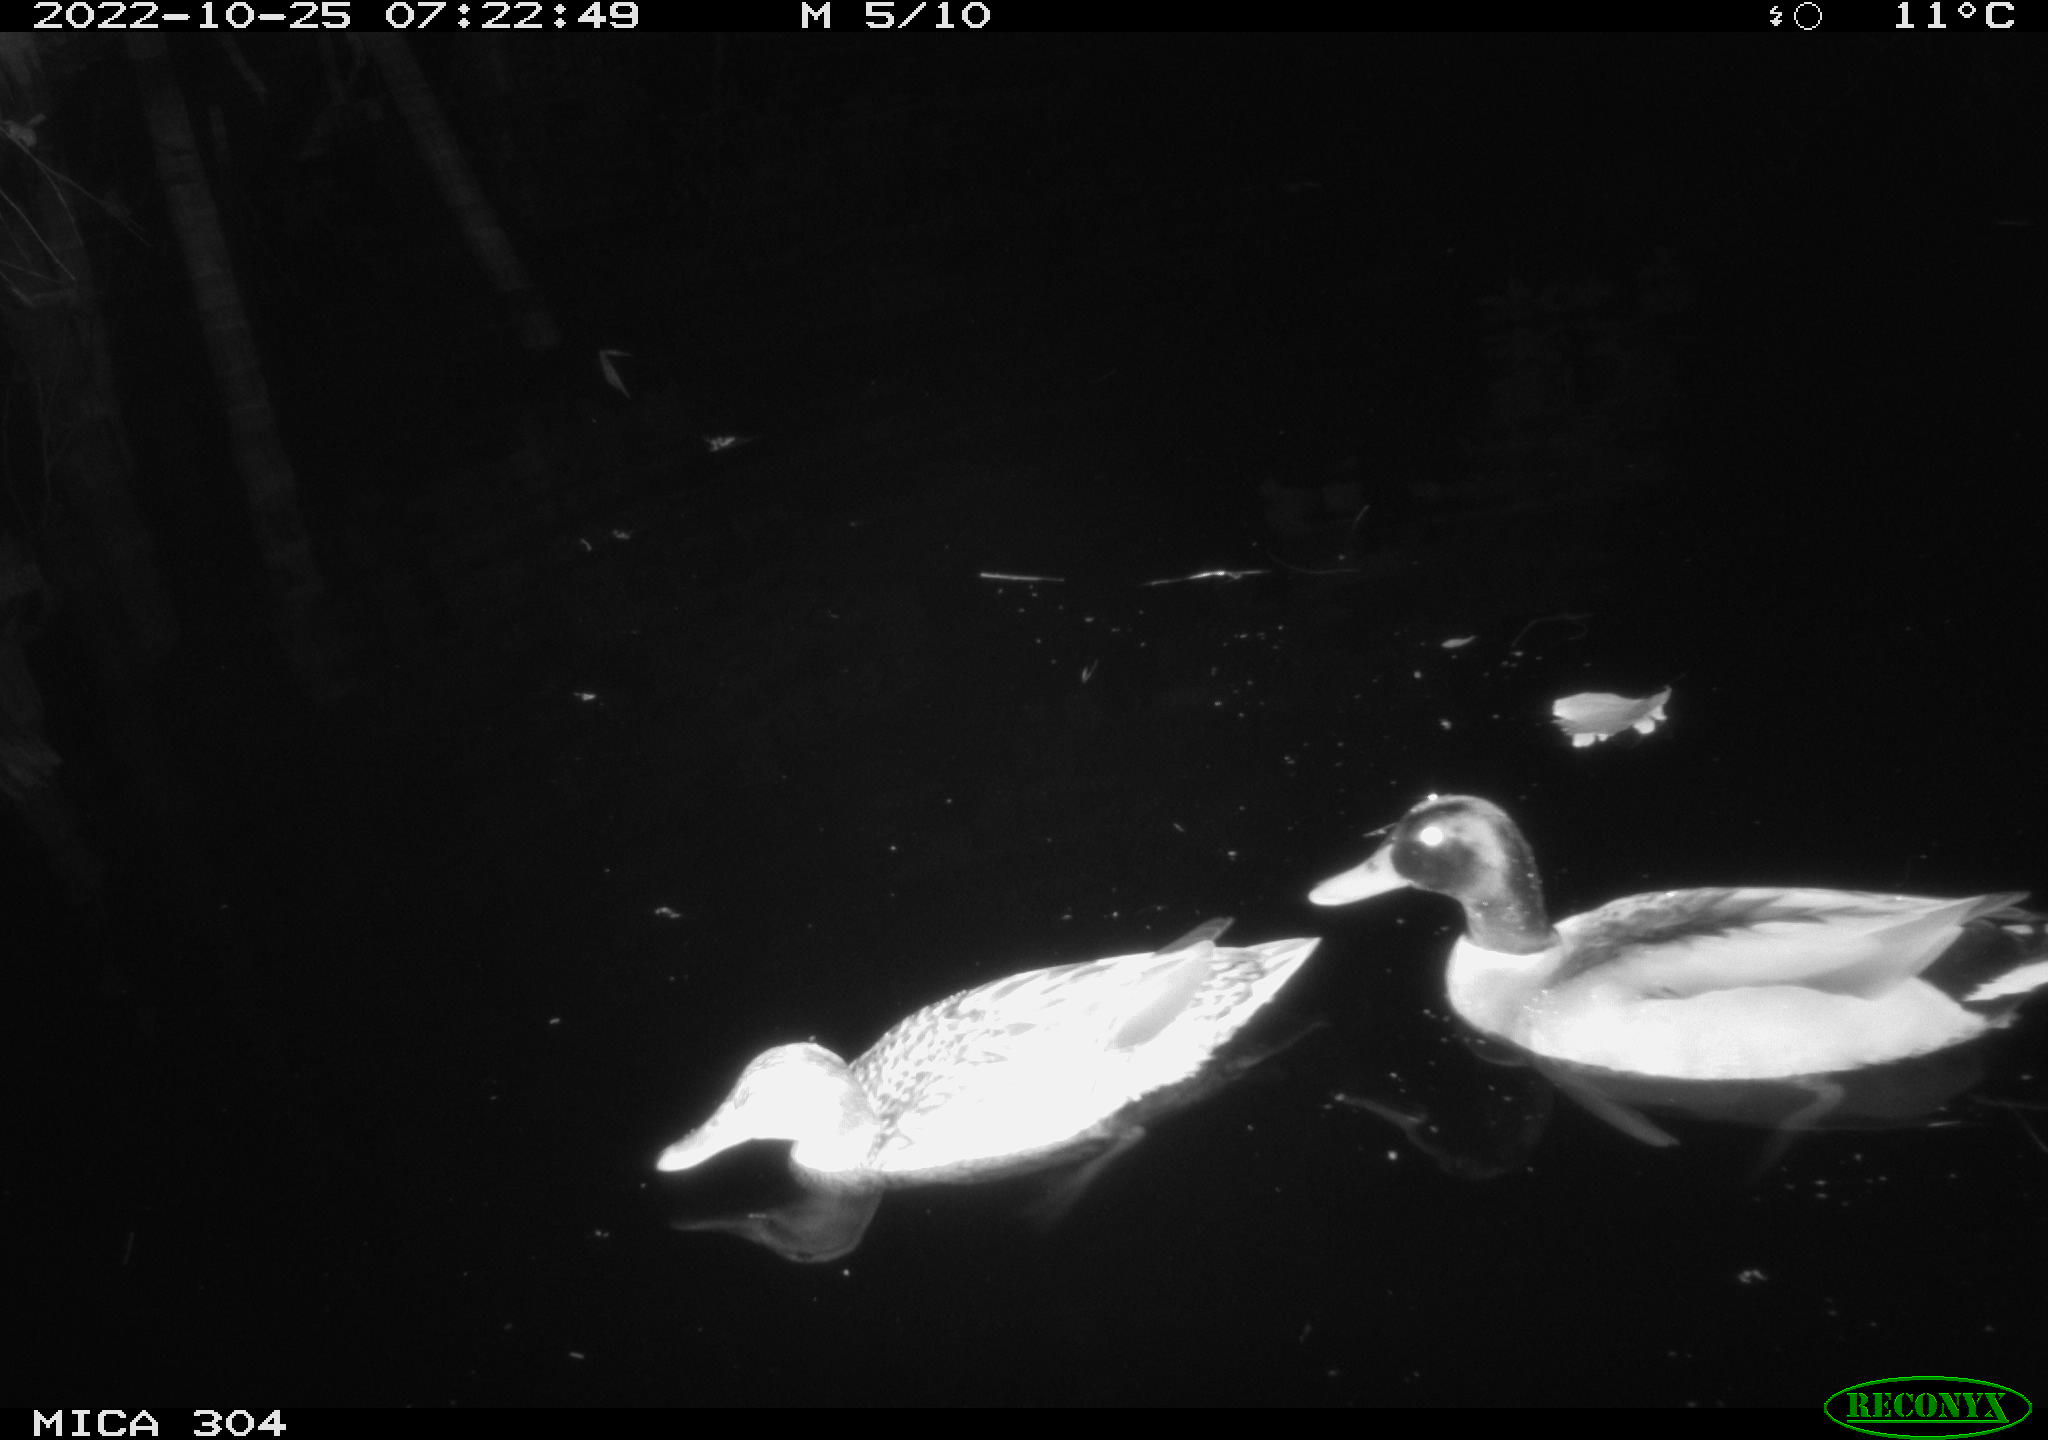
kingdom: Animalia
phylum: Chordata
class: Aves
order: Anseriformes
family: Anatidae
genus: Anas
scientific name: Anas
